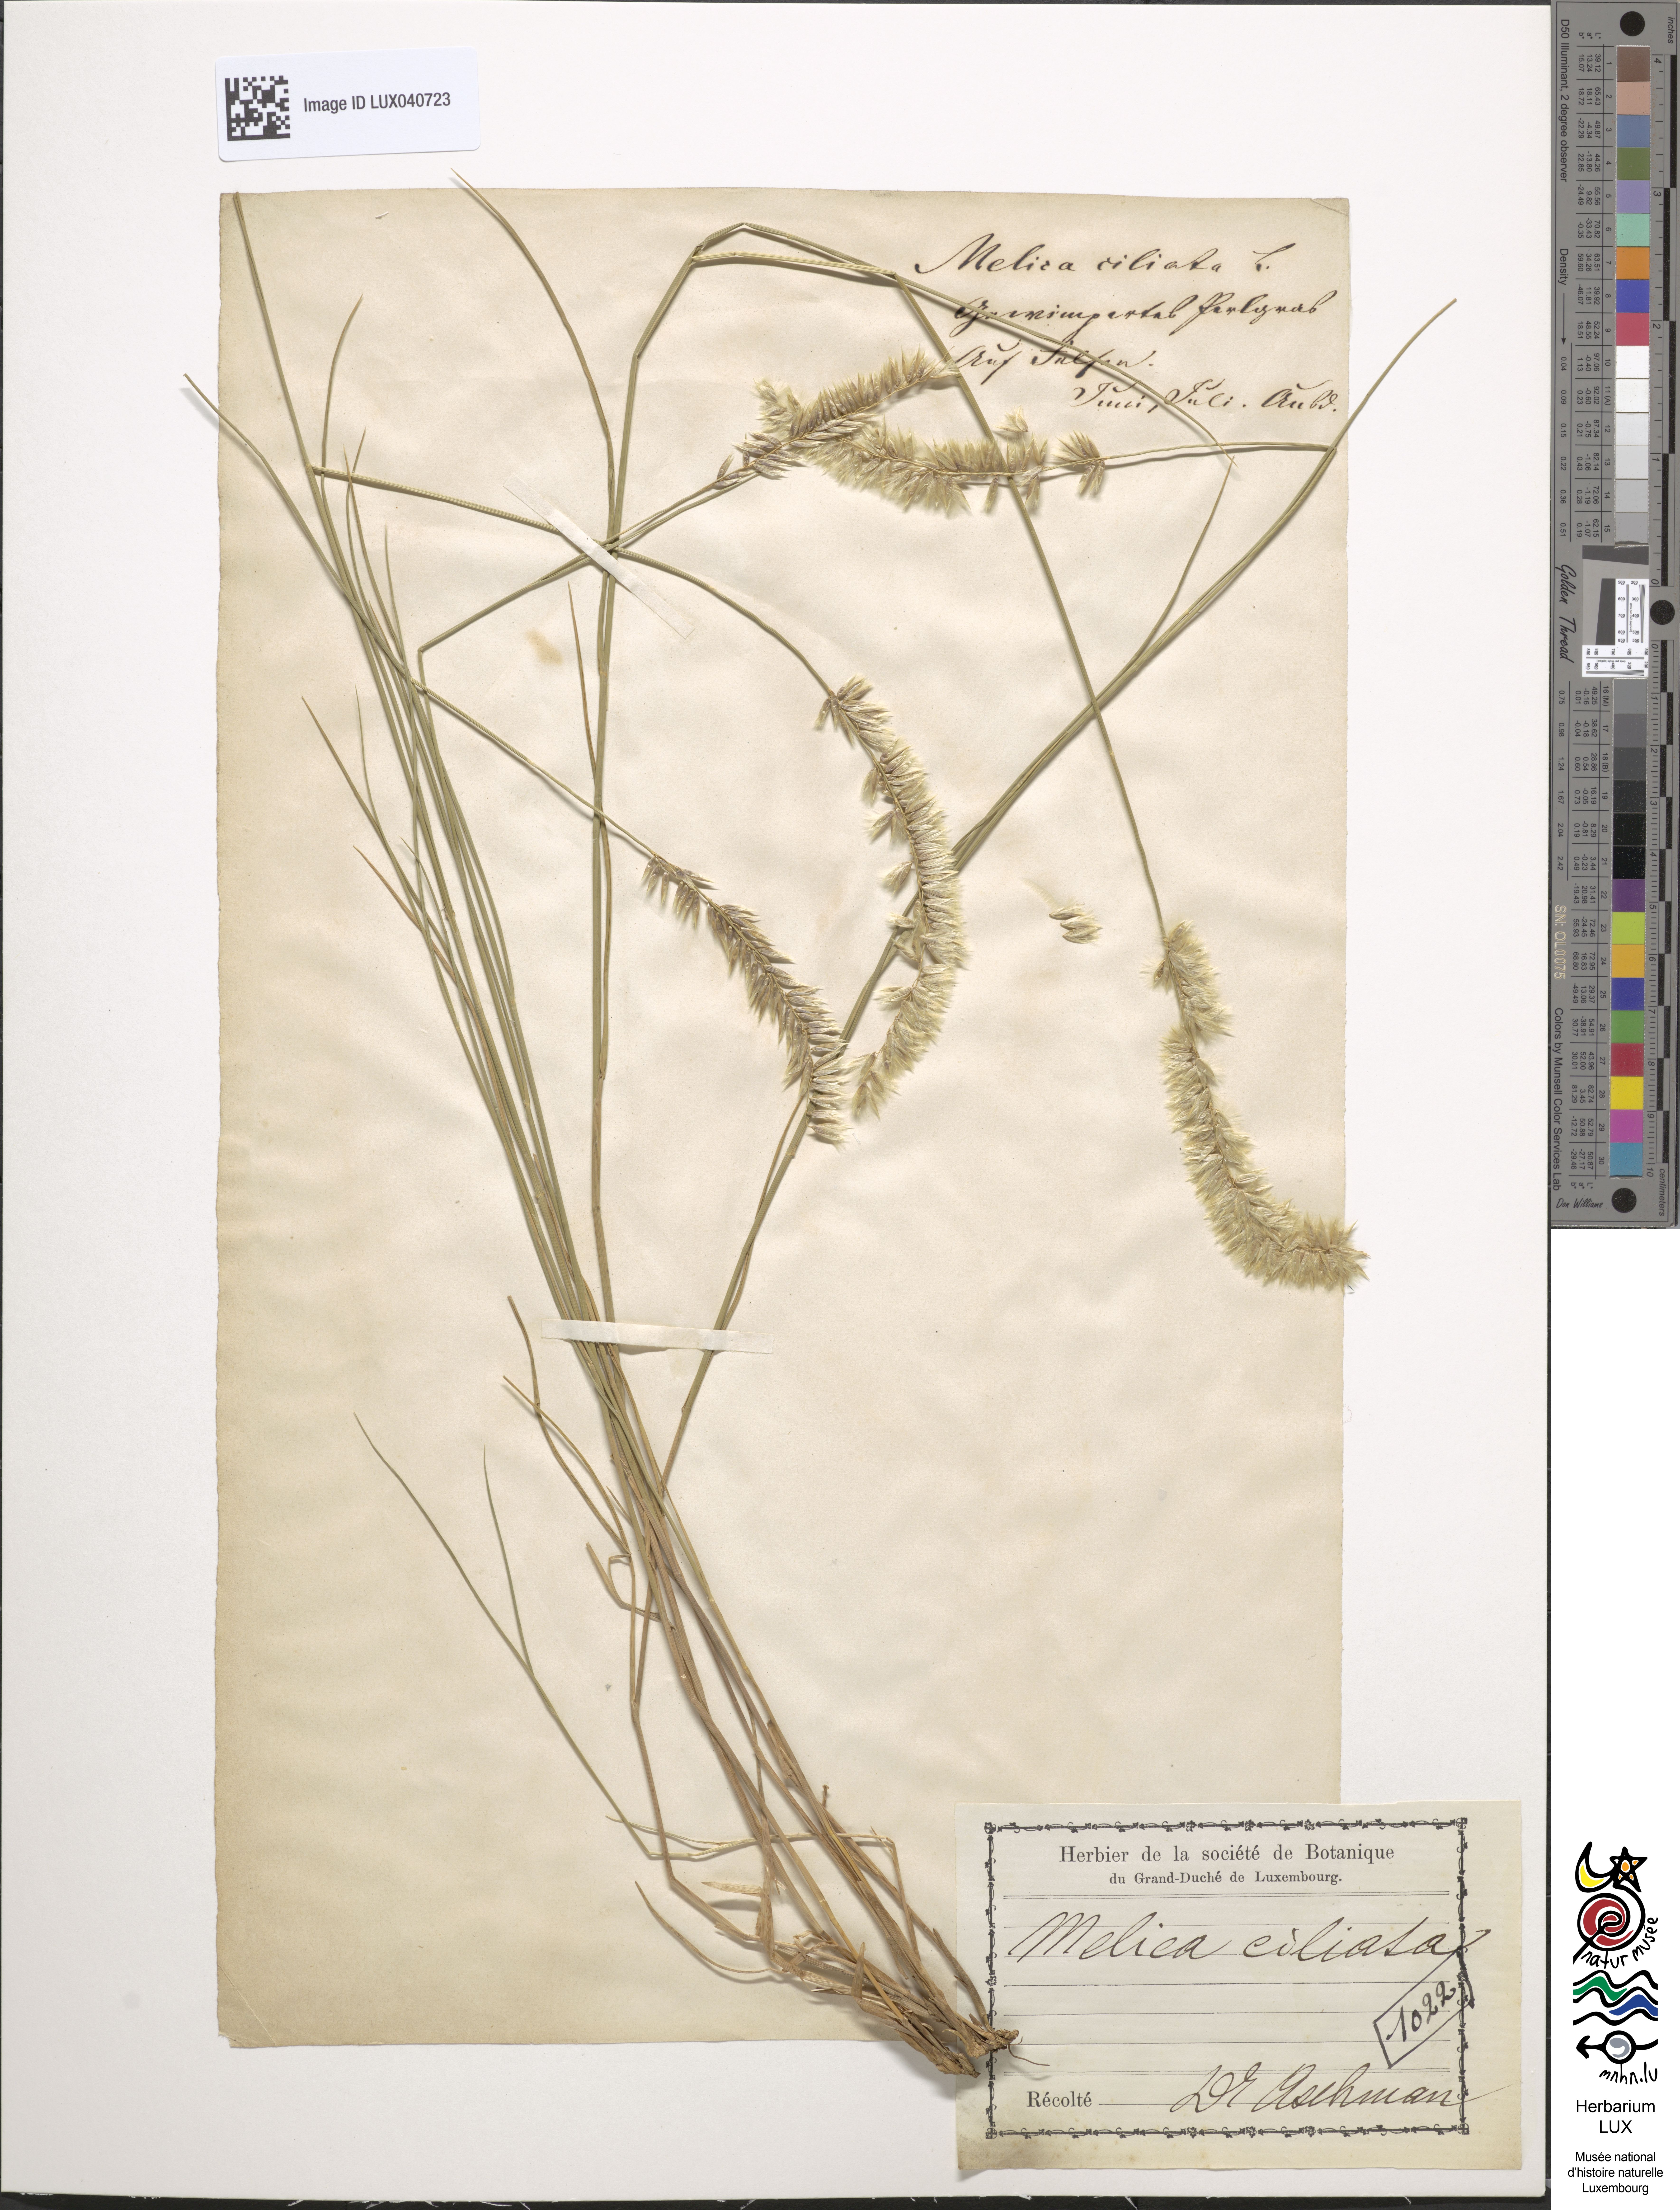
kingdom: Plantae
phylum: Tracheophyta
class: Liliopsida
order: Poales
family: Poaceae
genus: Melica
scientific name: Melica ciliata
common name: Hairy melicgrass
